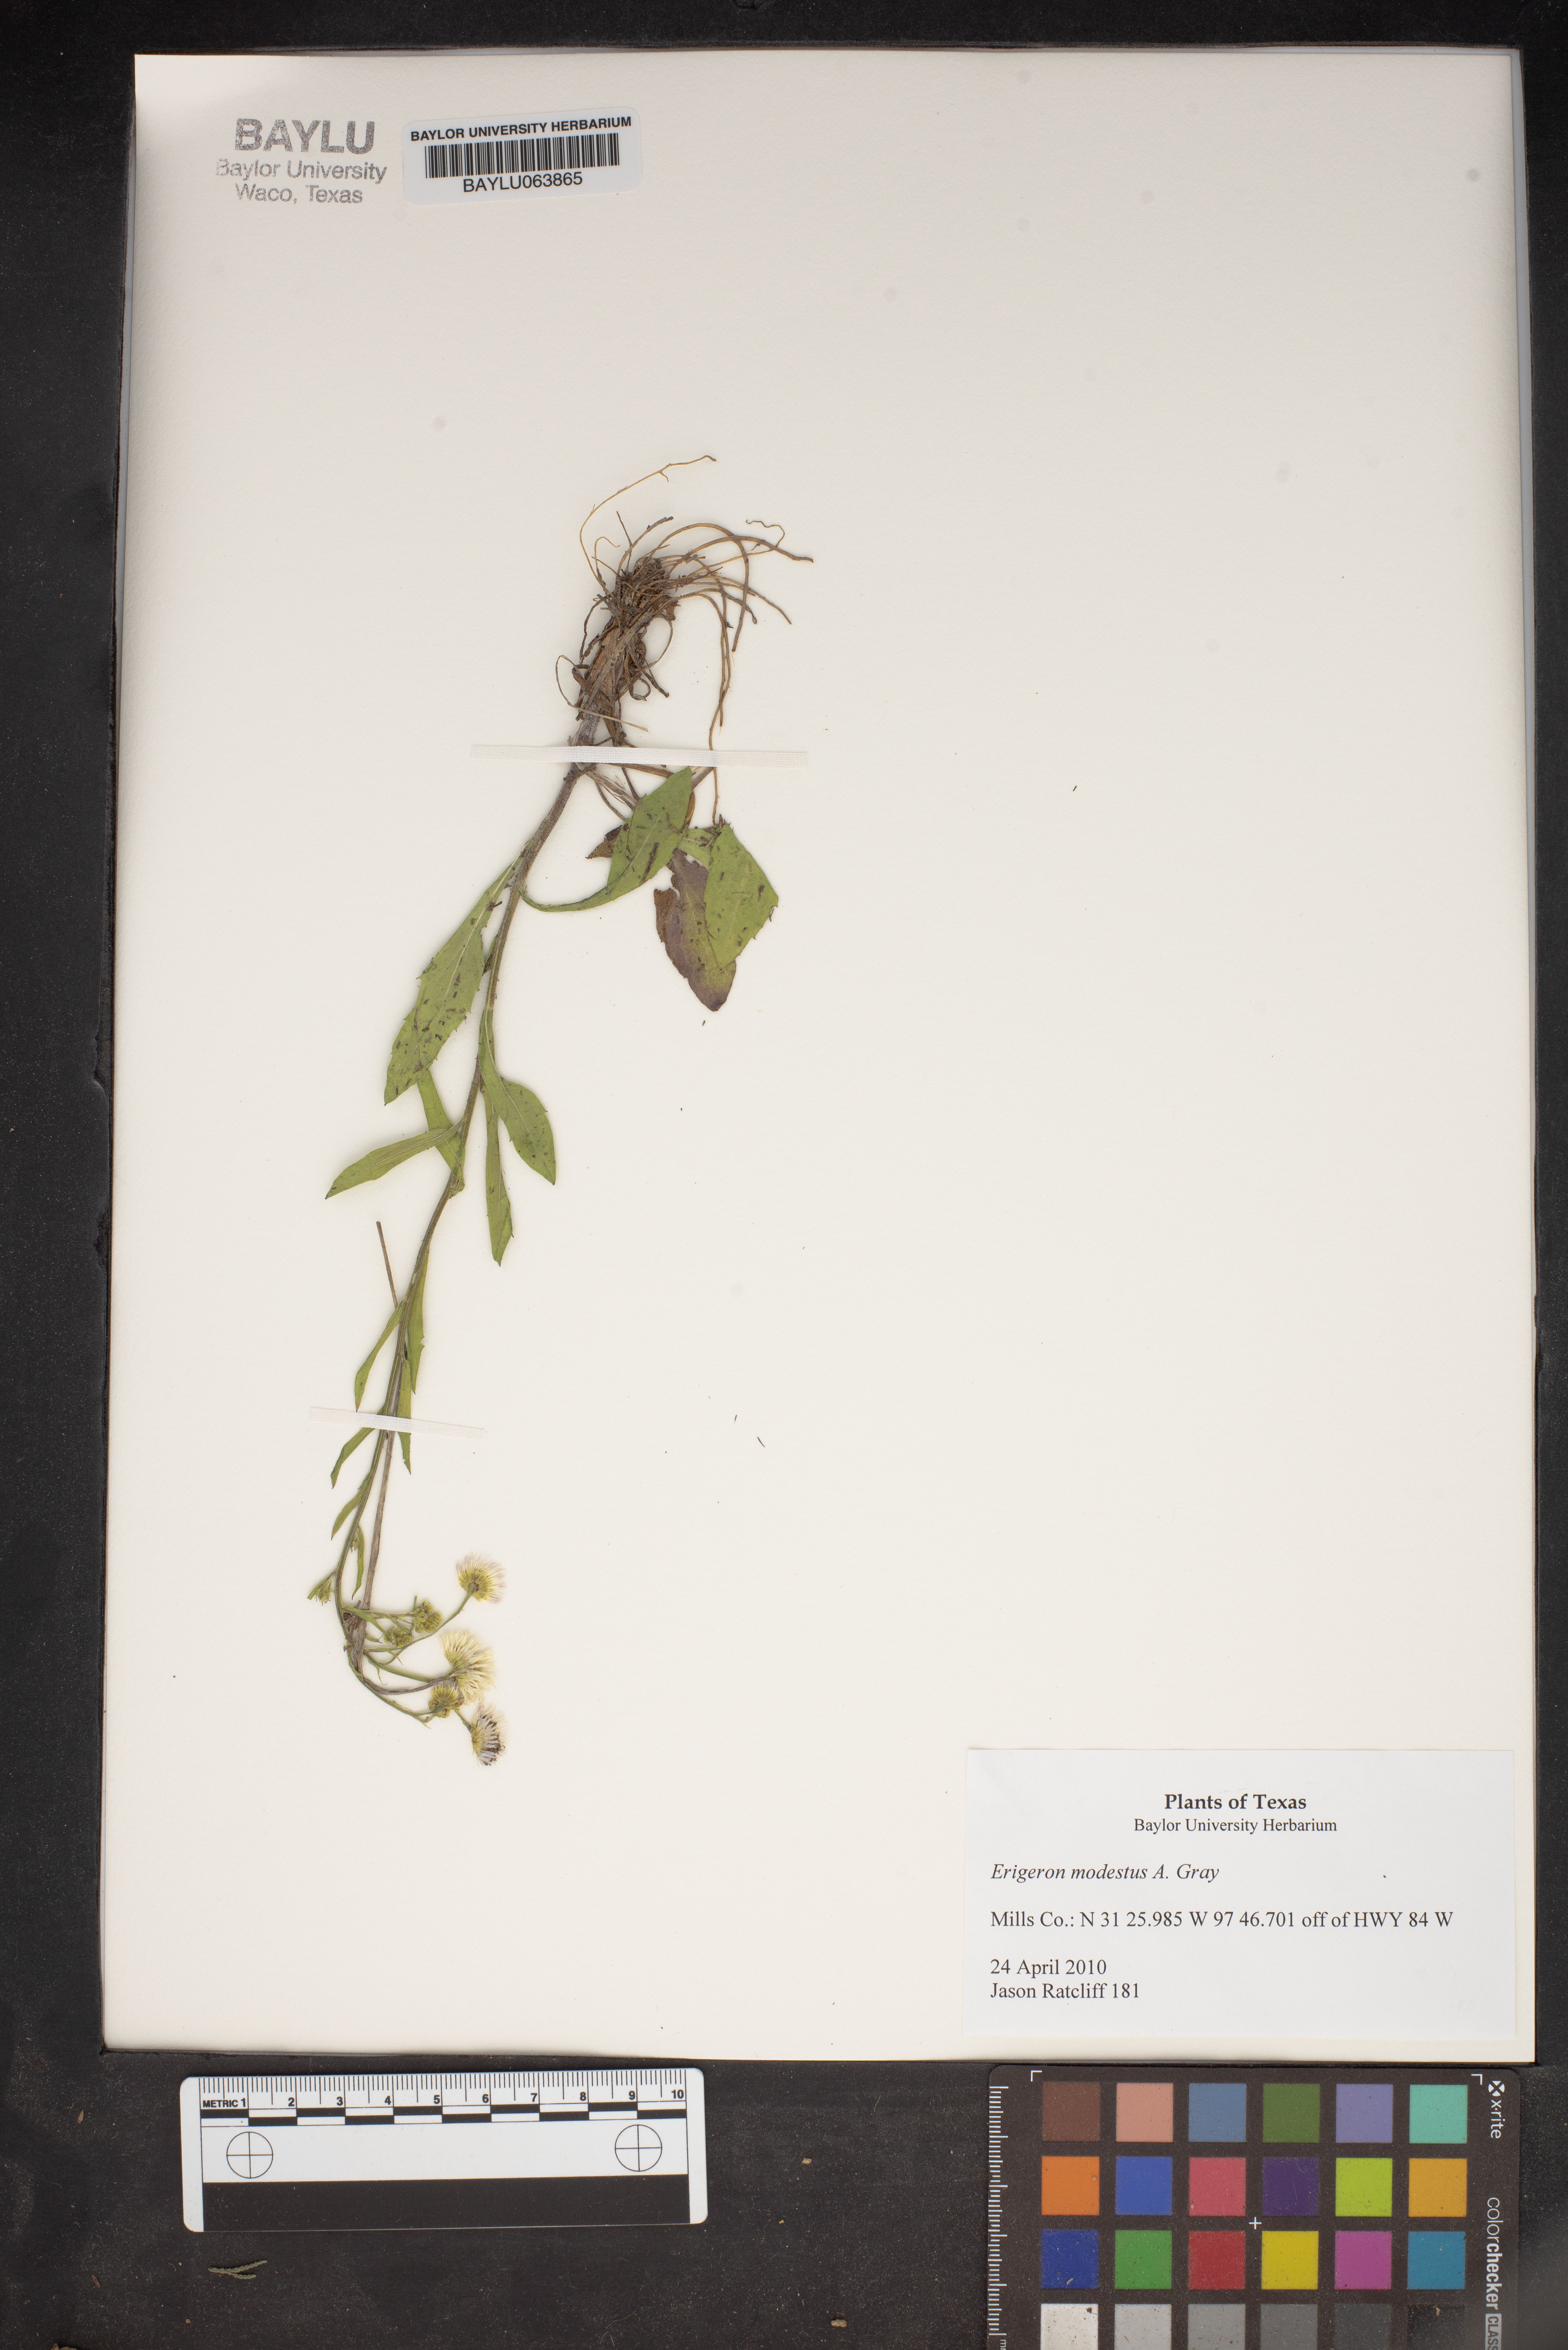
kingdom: Plantae
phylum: Tracheophyta
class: Magnoliopsida
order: Asterales
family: Asteraceae
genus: Erigeron
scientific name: Erigeron modestus
